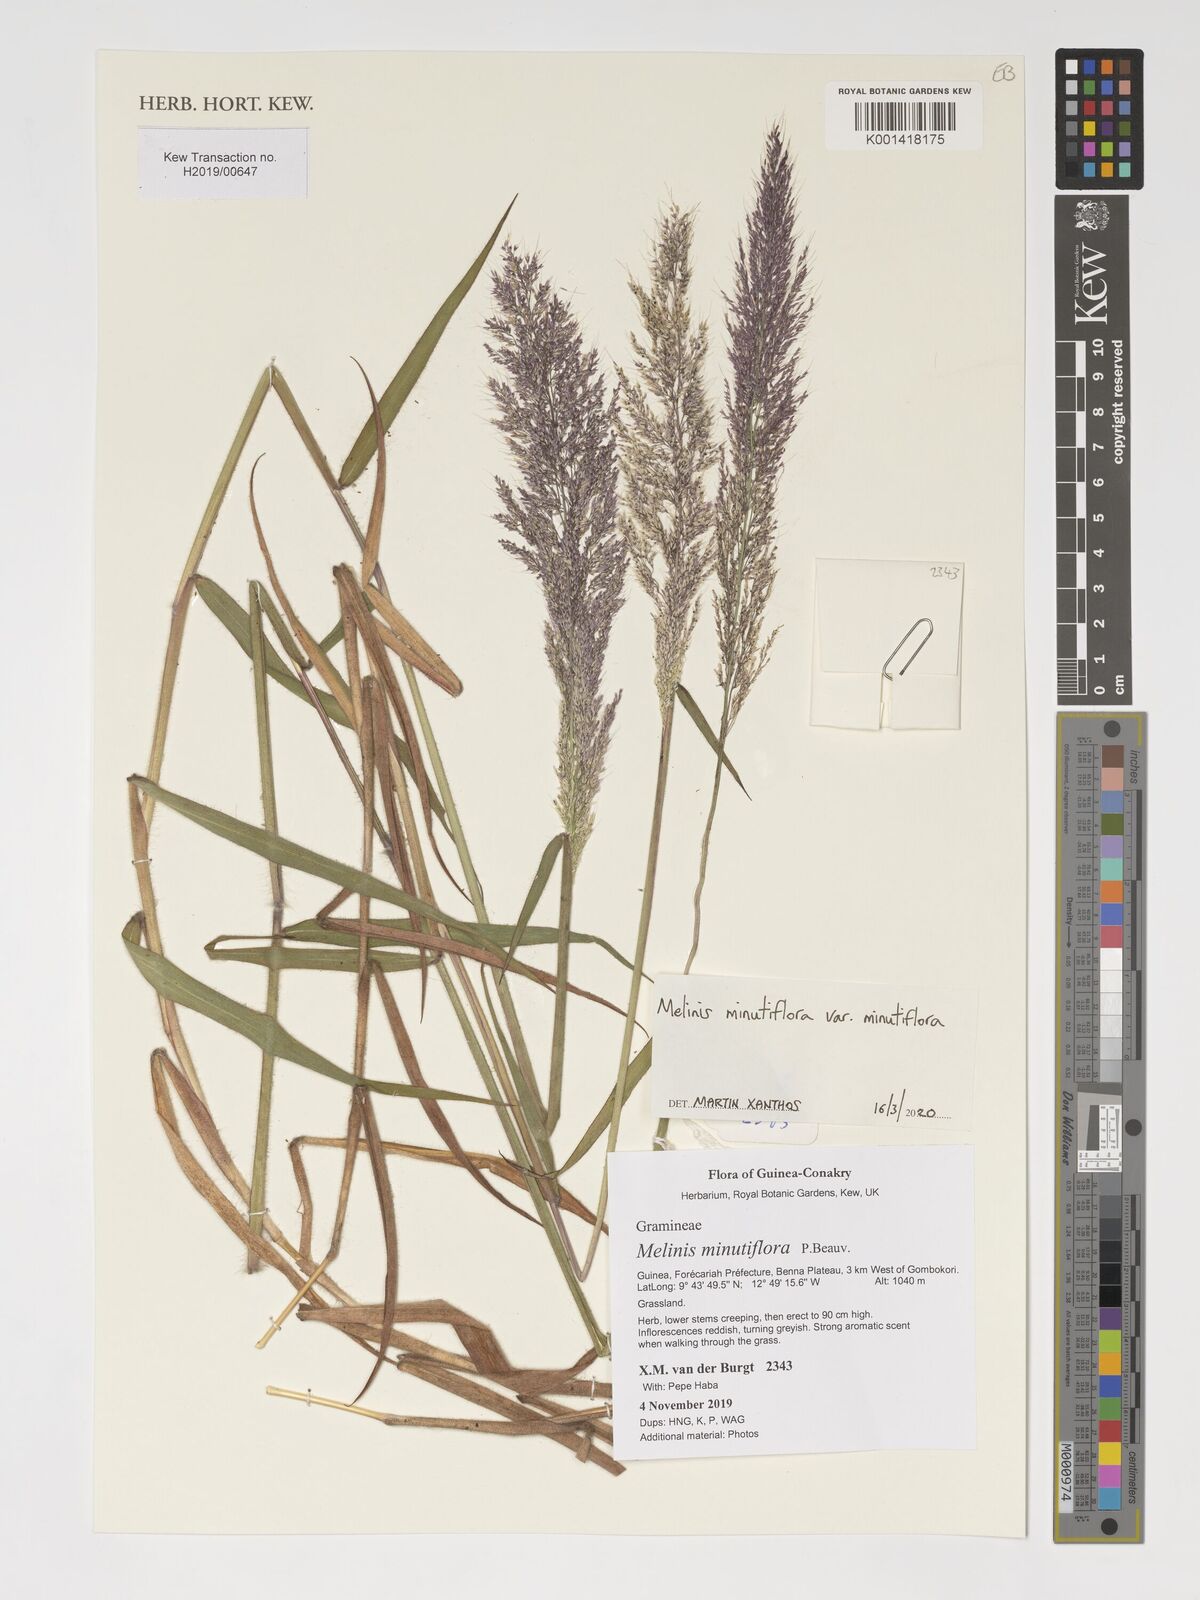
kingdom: Plantae
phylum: Tracheophyta
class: Liliopsida
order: Poales
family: Poaceae
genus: Melinis
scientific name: Melinis minutiflora
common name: Molassesgrass
